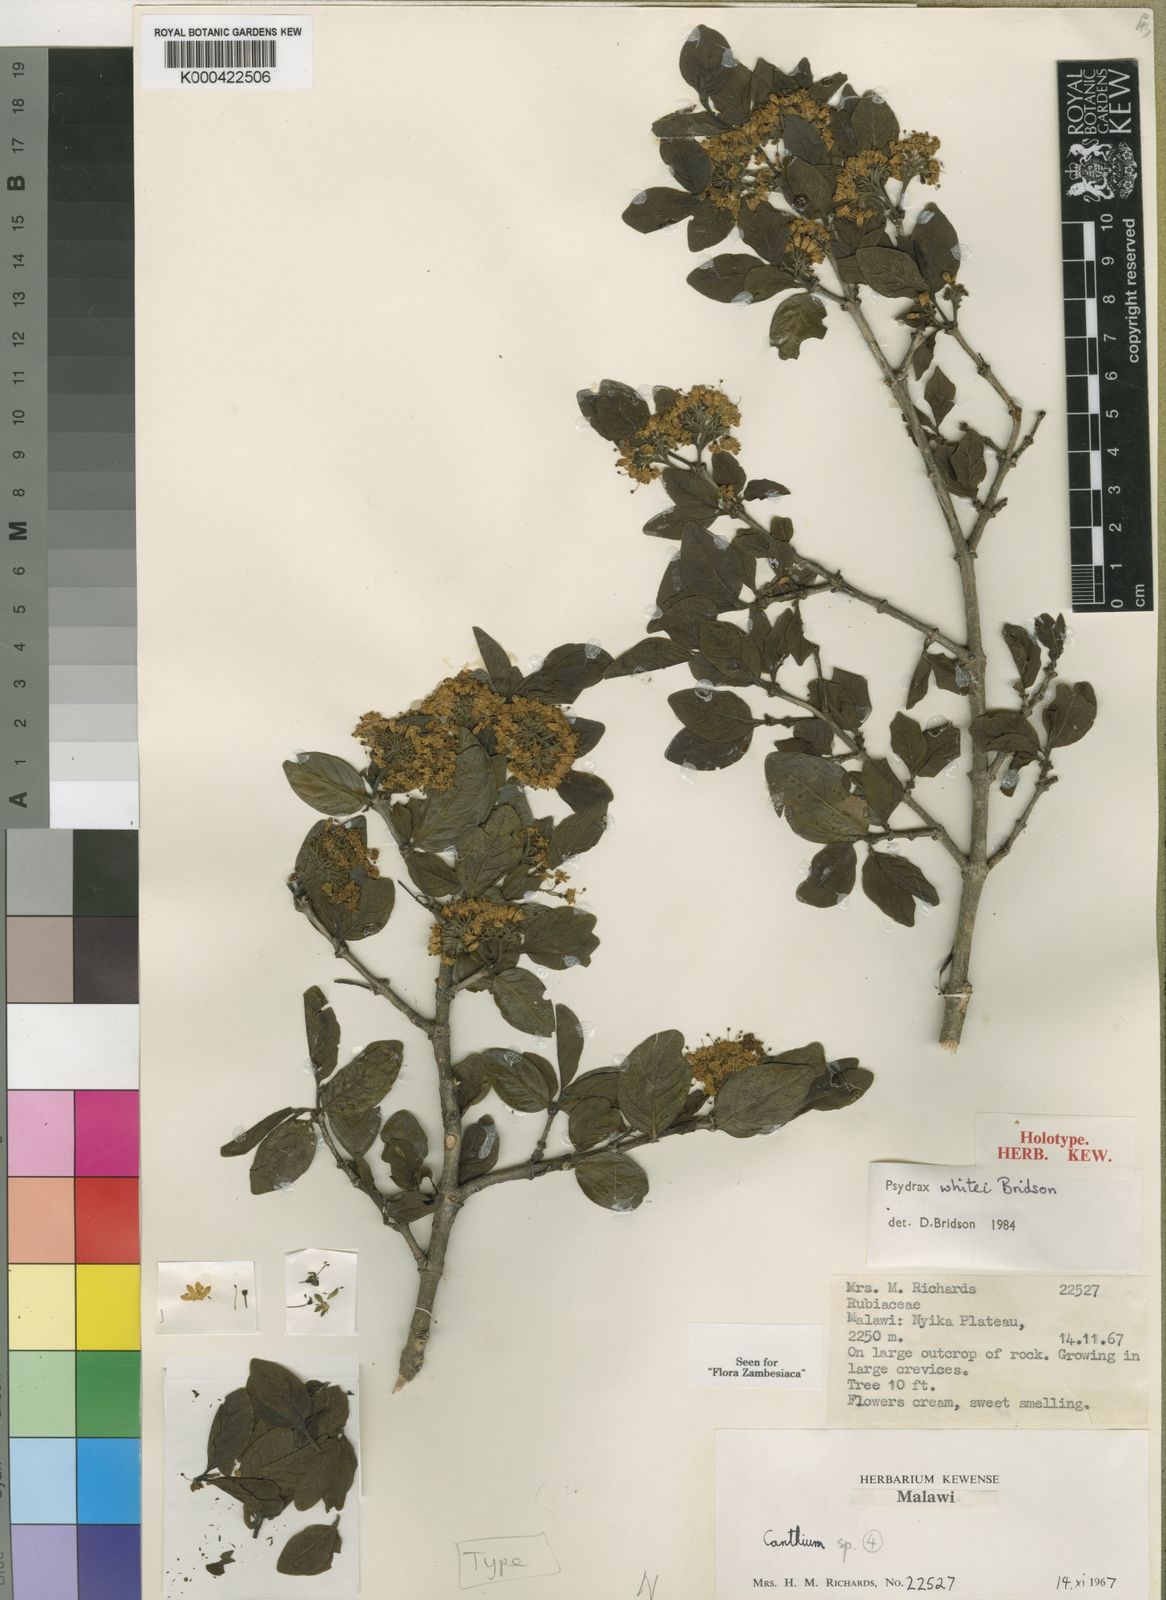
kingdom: Plantae
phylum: Tracheophyta
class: Magnoliopsida
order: Gentianales
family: Rubiaceae
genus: Psydrax
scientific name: Psydrax whitei
